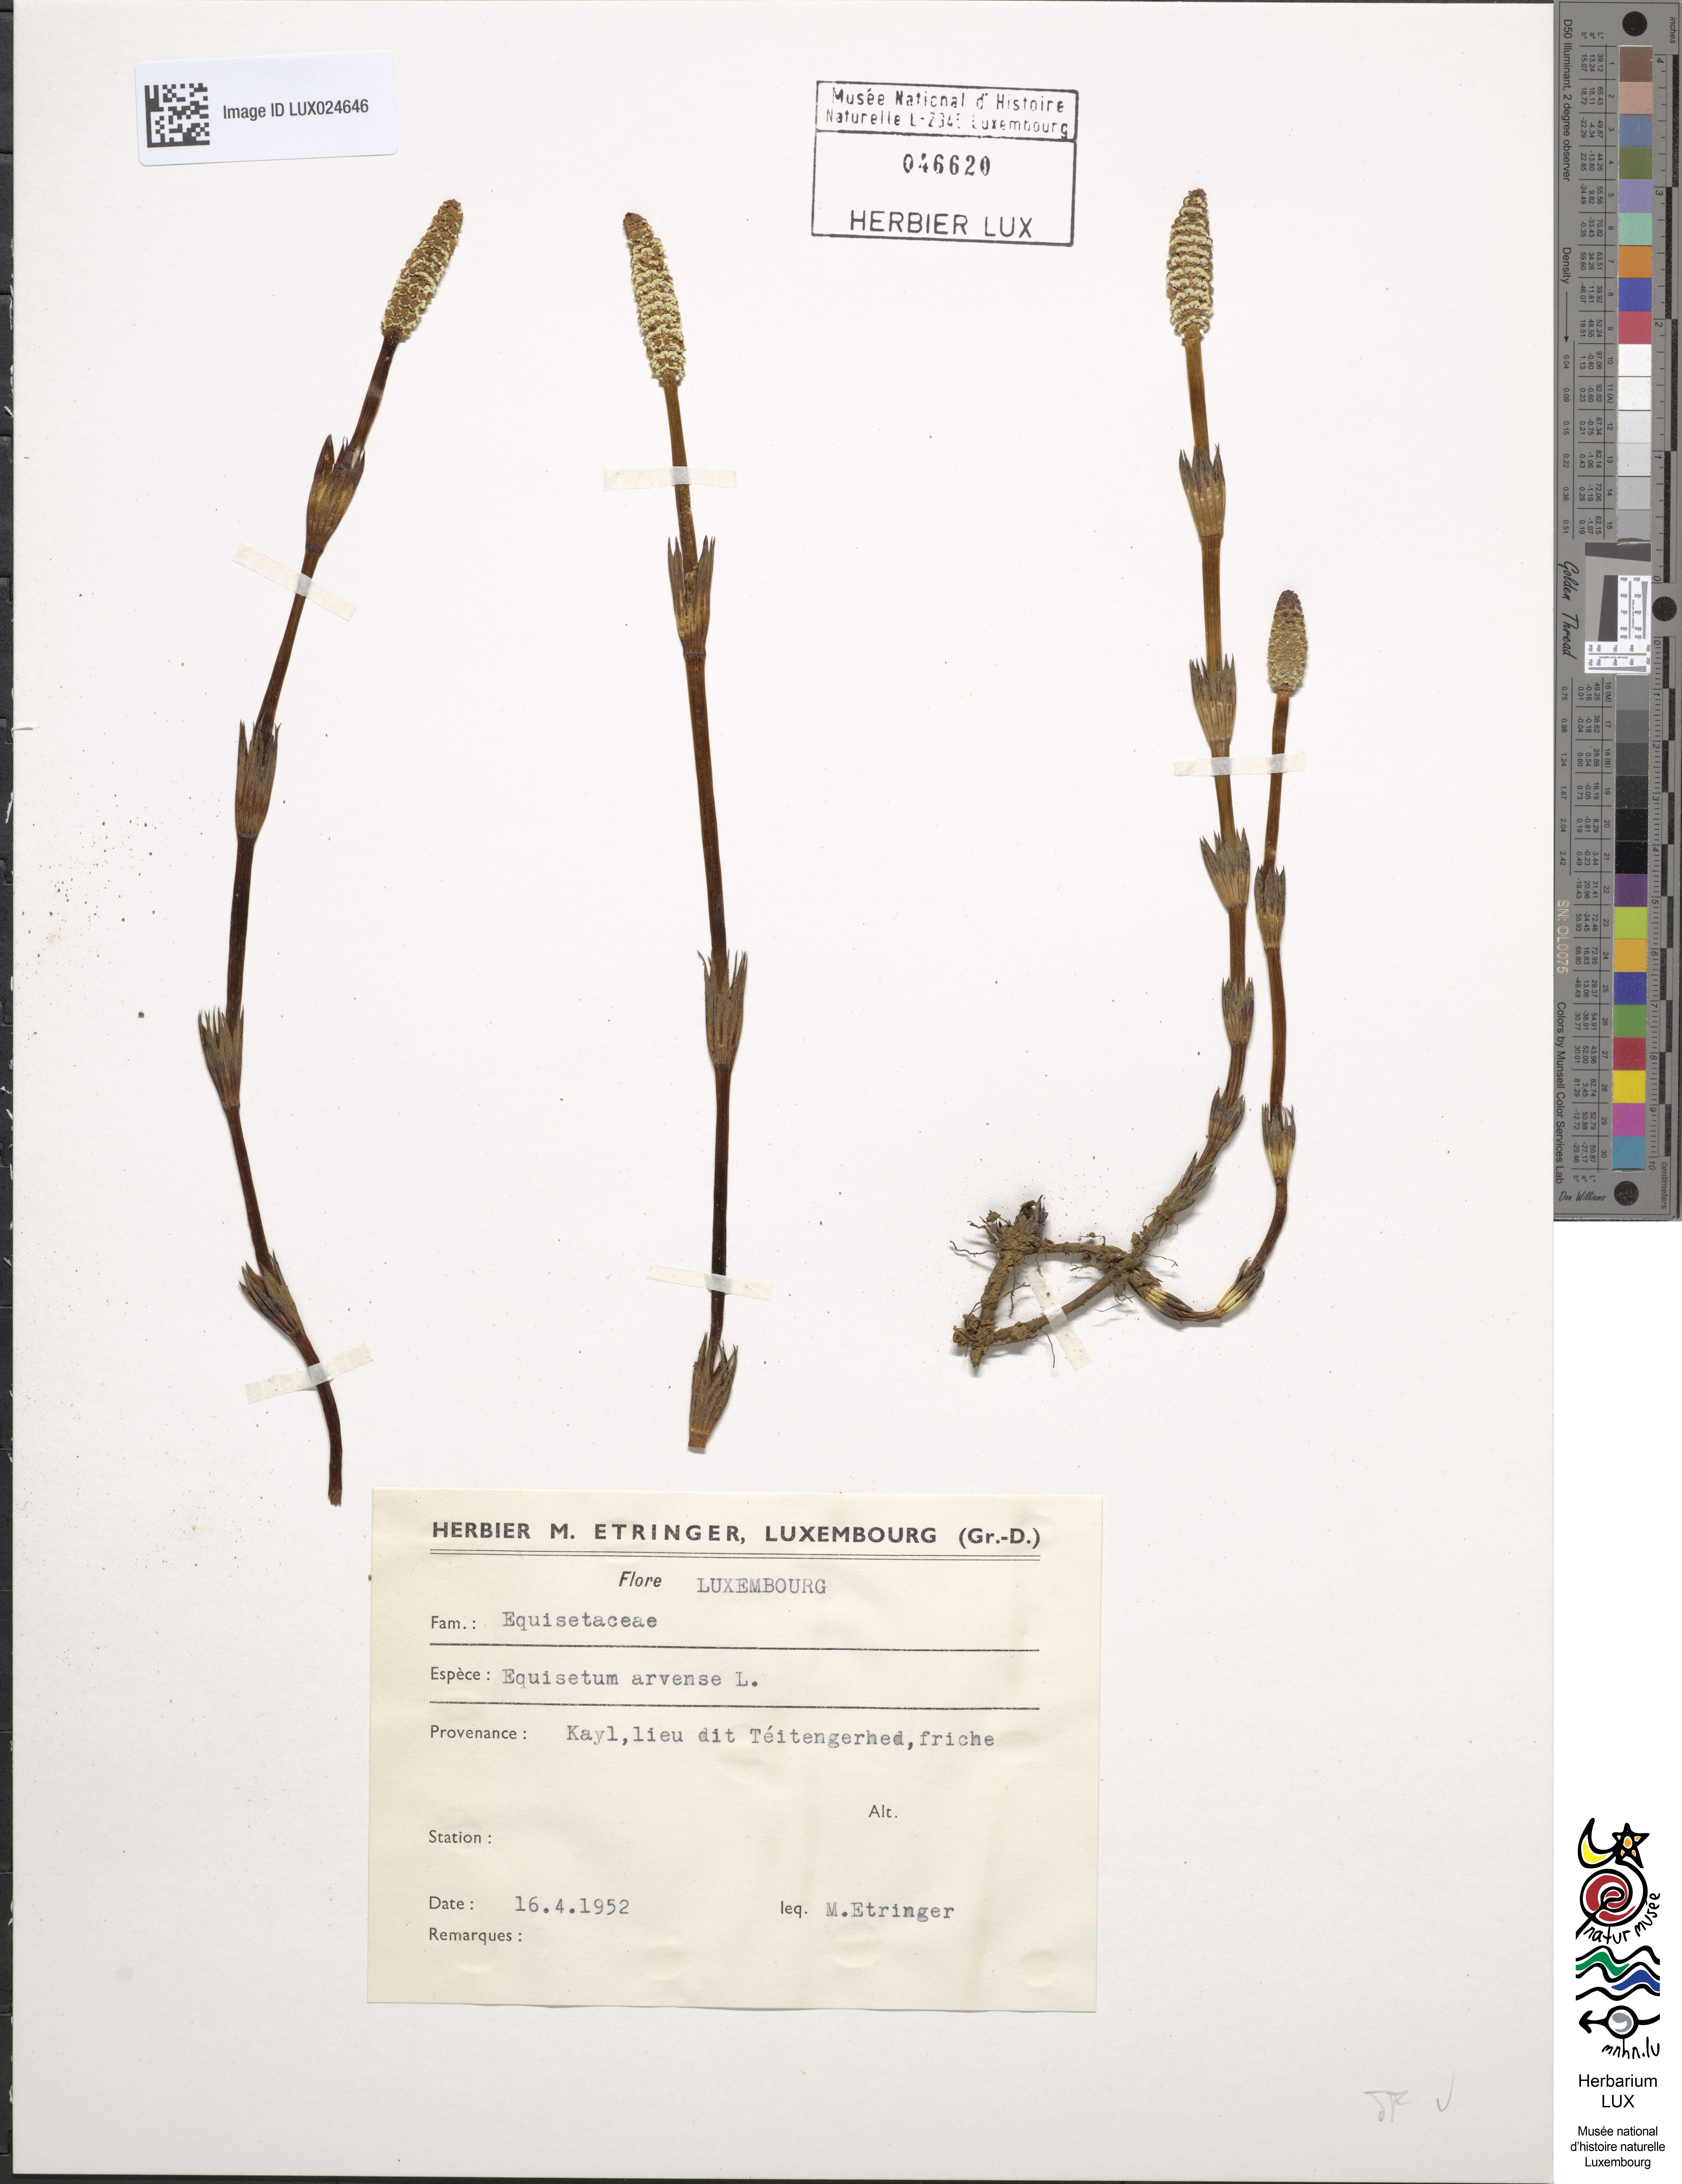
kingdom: Plantae
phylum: Tracheophyta
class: Polypodiopsida
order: Equisetales
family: Equisetaceae
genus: Equisetum
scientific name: Equisetum arvense
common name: Field horsetail
